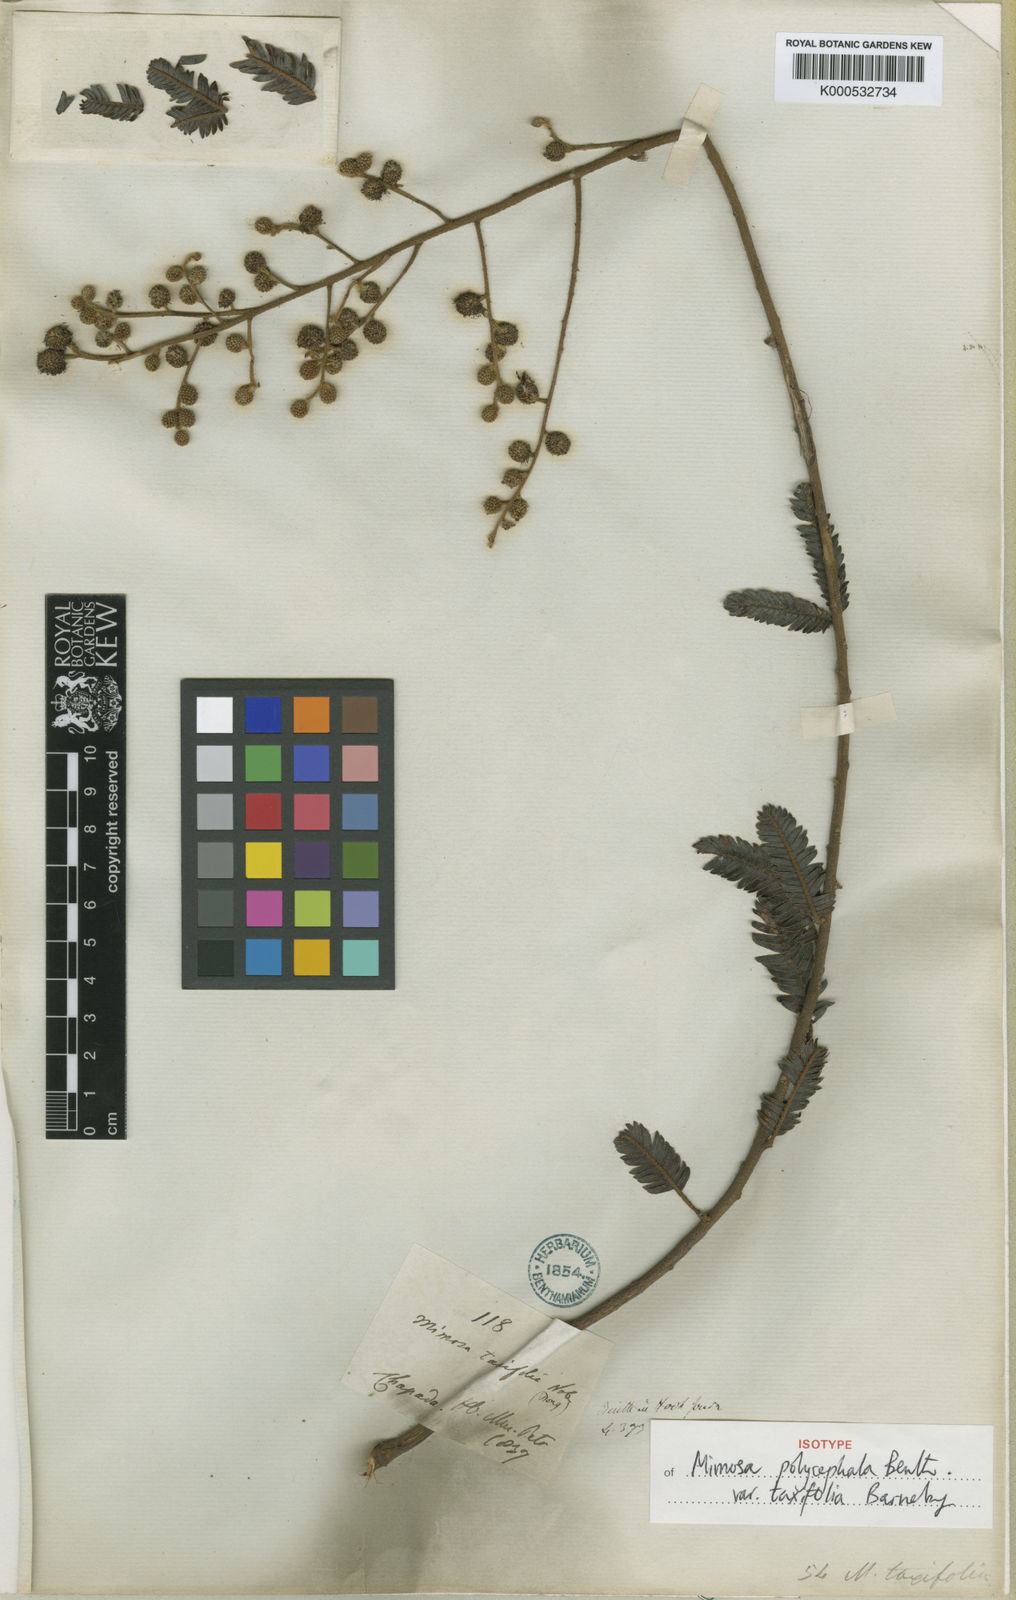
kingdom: Plantae
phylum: Tracheophyta
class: Magnoliopsida
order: Fabales
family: Fabaceae
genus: Mimosa
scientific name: Mimosa polycephala
